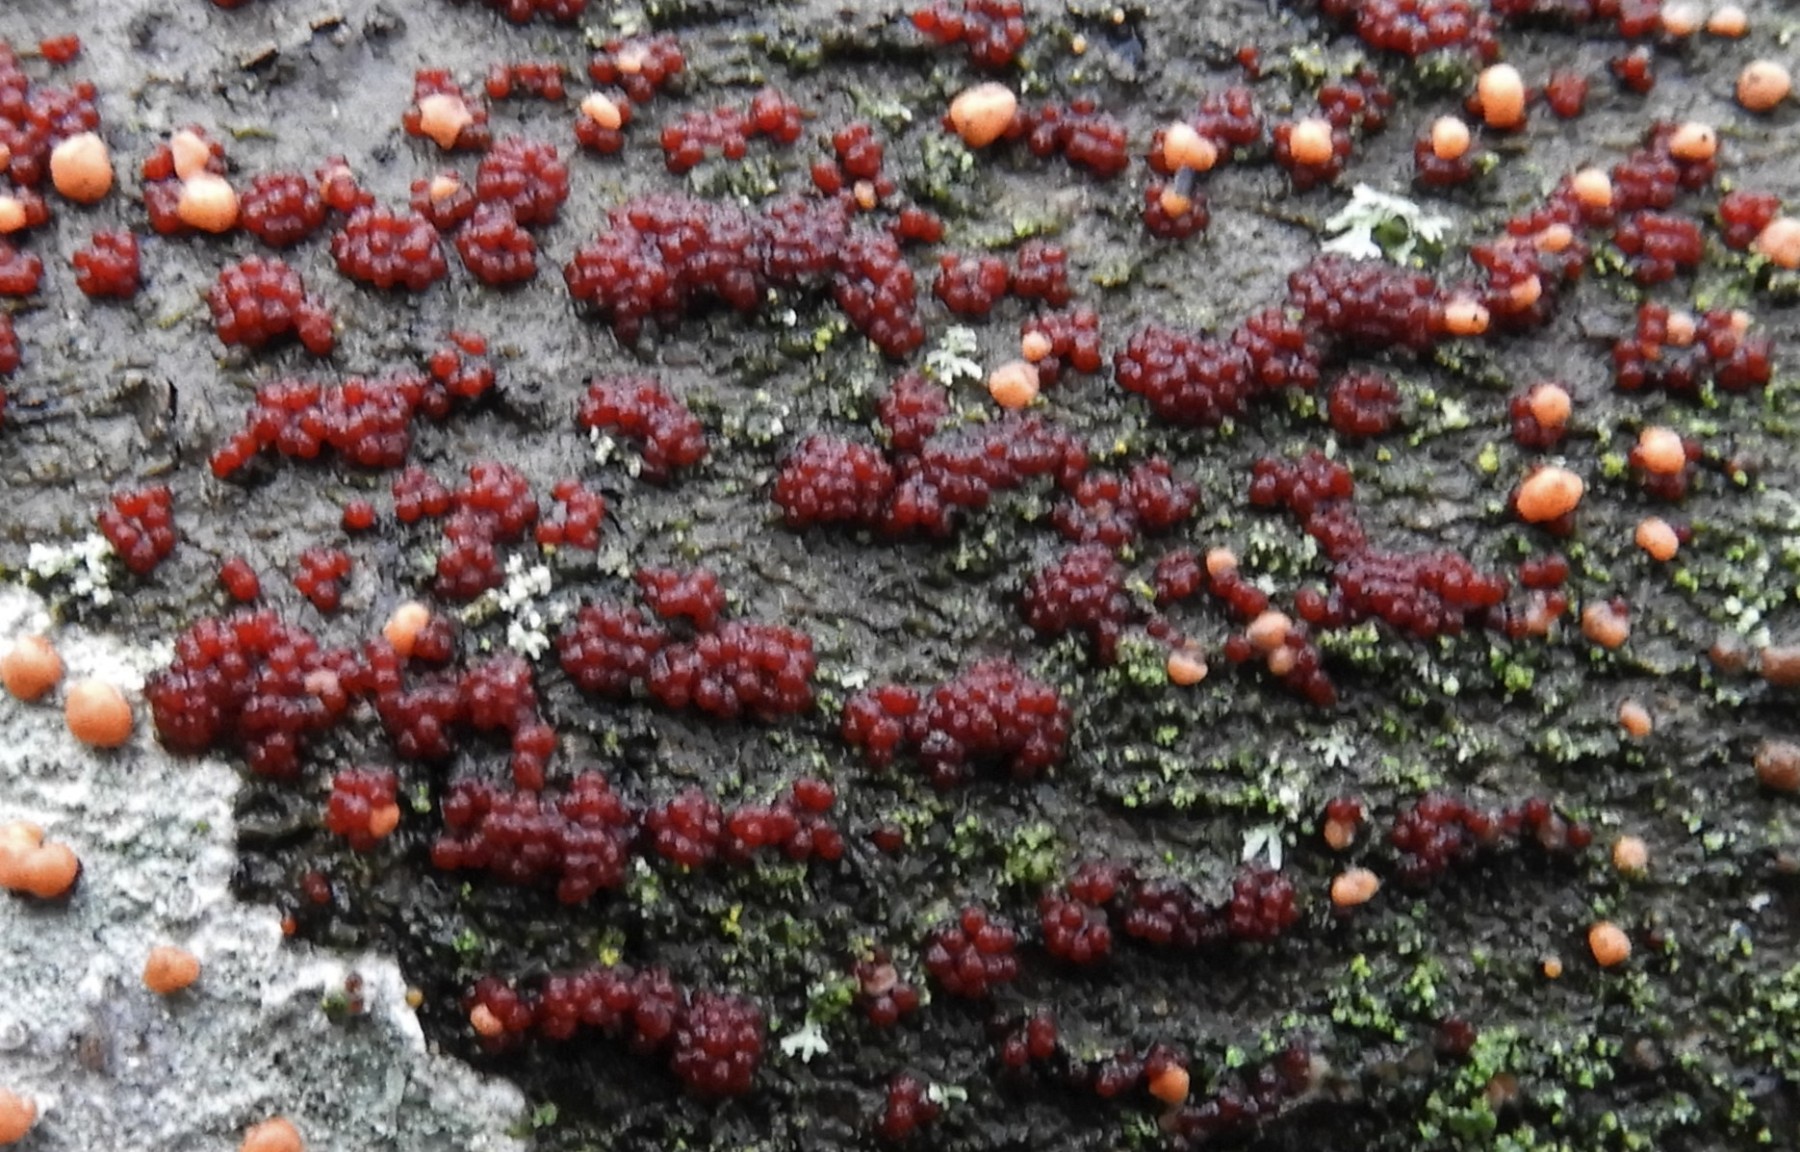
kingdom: Fungi
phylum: Ascomycota
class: Sordariomycetes
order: Hypocreales
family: Nectriaceae
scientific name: Nectriaceae
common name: cinnobersvampfamilien
